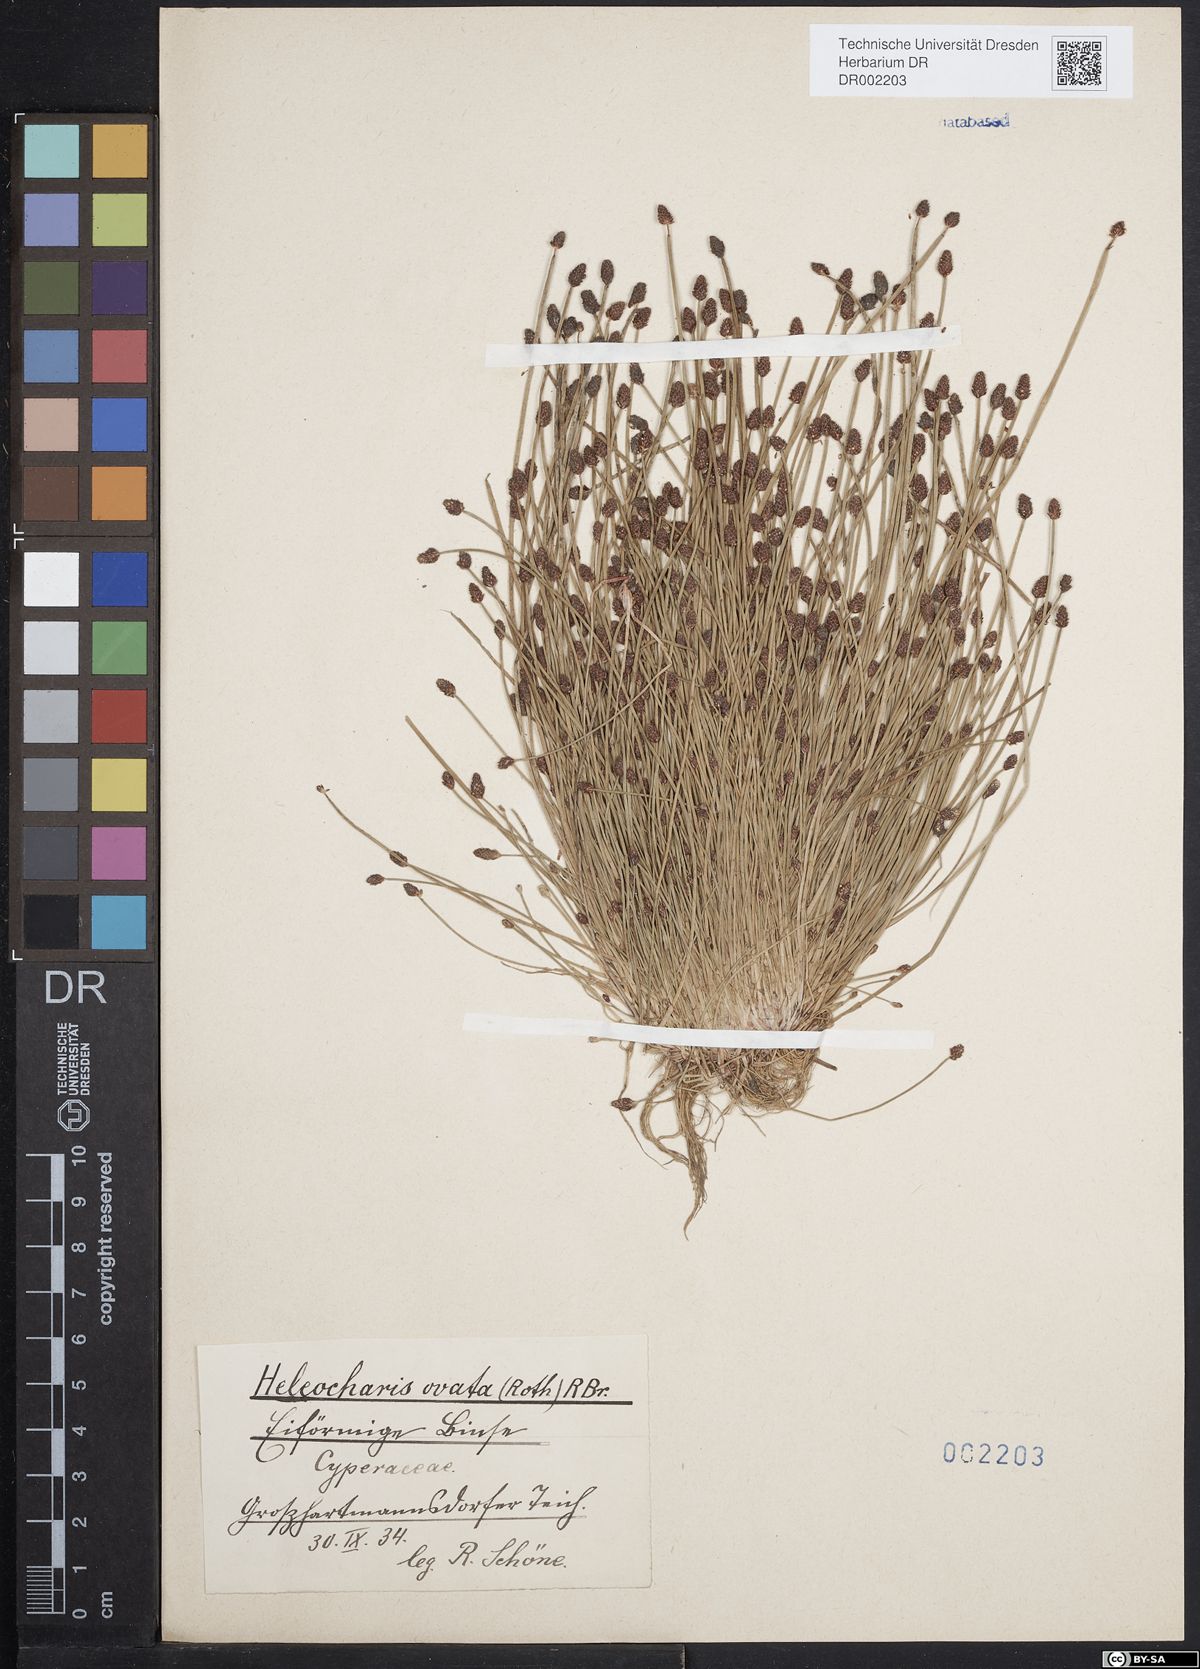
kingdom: Plantae
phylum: Tracheophyta
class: Liliopsida
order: Poales
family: Cyperaceae
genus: Eleocharis
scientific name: Eleocharis ovata
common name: Oval spike-rush
